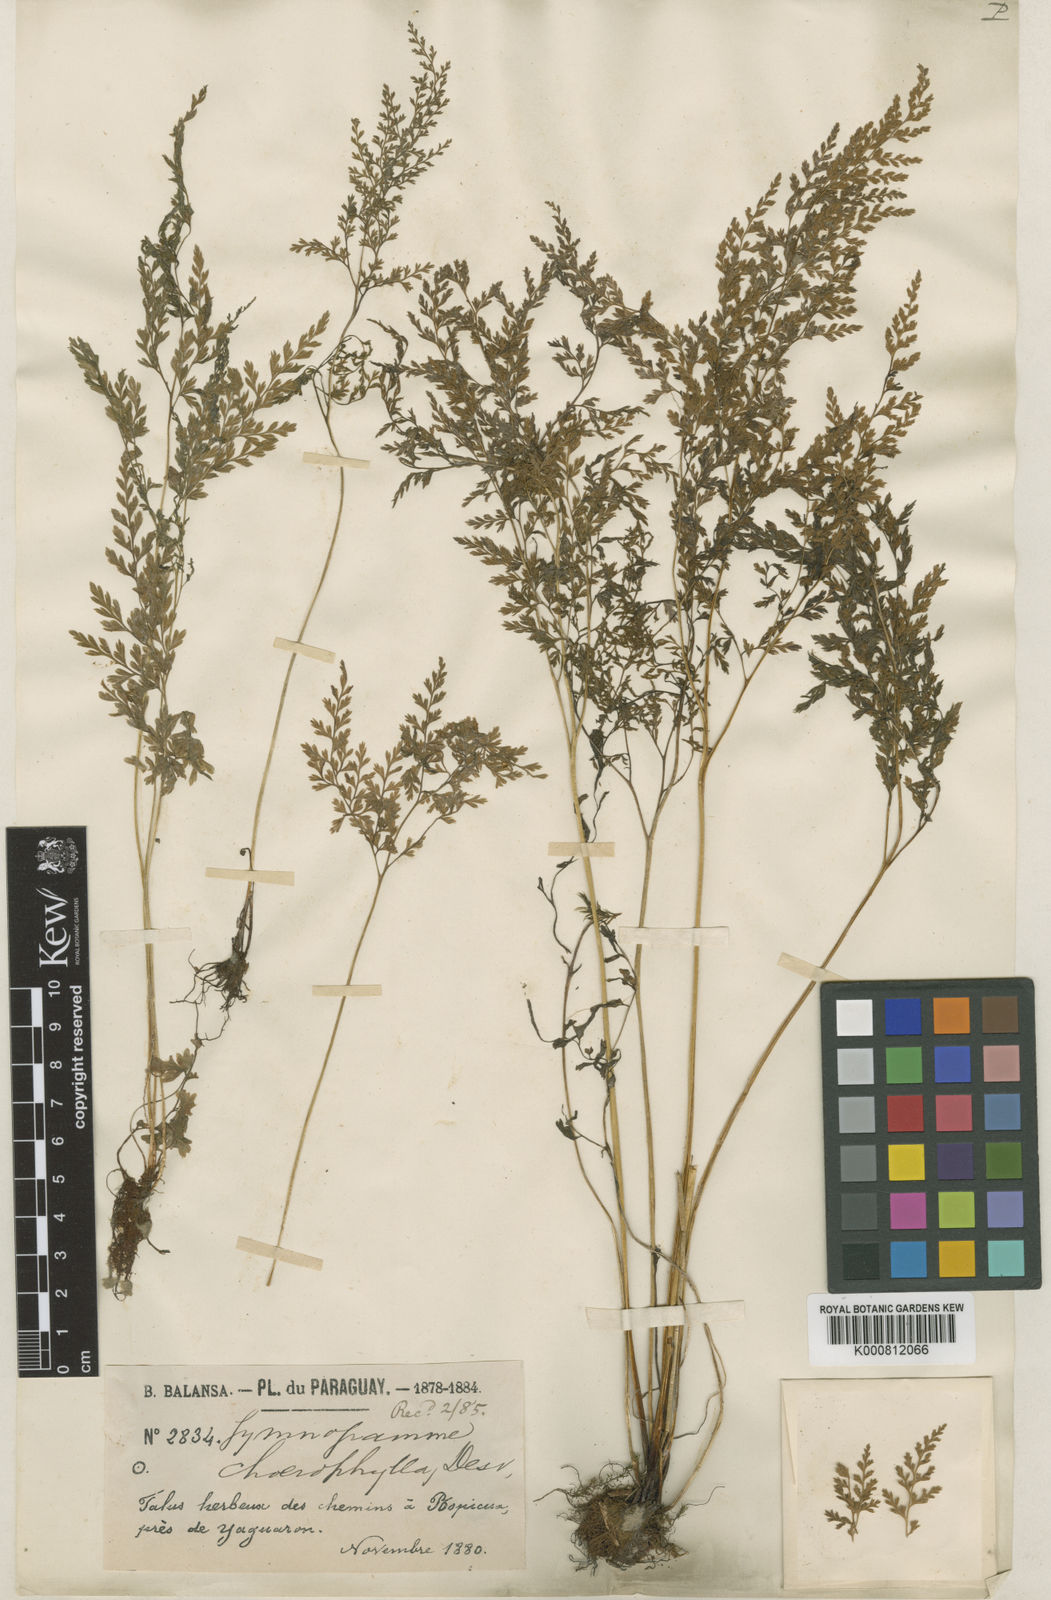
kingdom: Plantae
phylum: Tracheophyta
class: Polypodiopsida
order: Polypodiales
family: Pteridaceae
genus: Gastoniella
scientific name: Gastoniella chaerophylla
